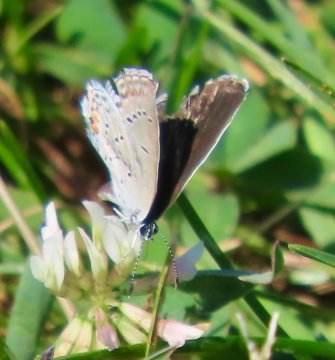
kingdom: Animalia
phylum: Arthropoda
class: Insecta
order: Lepidoptera
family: Lycaenidae
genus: Elkalyce
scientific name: Elkalyce comyntas
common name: Eastern Tailed-Blue
